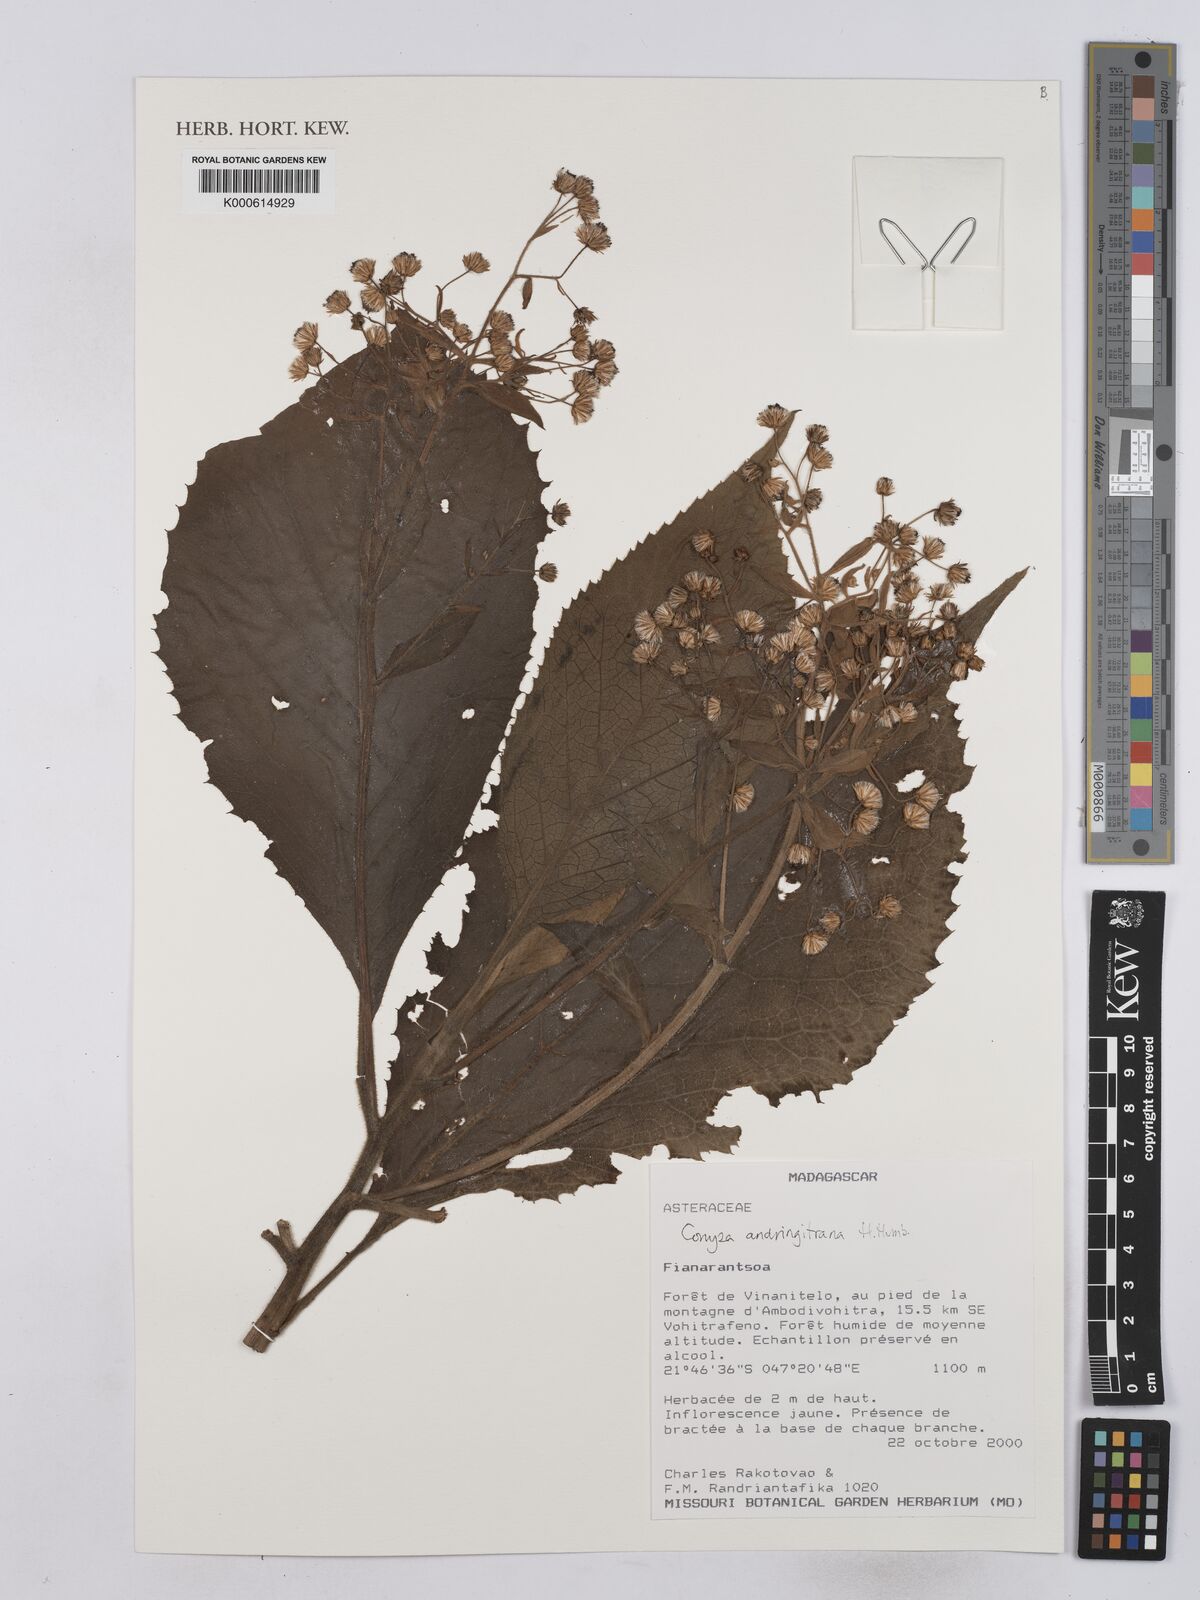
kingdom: Plantae
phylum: Tracheophyta
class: Magnoliopsida
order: Asterales
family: Asteraceae
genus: Conyza
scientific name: Conyza andringitrana
